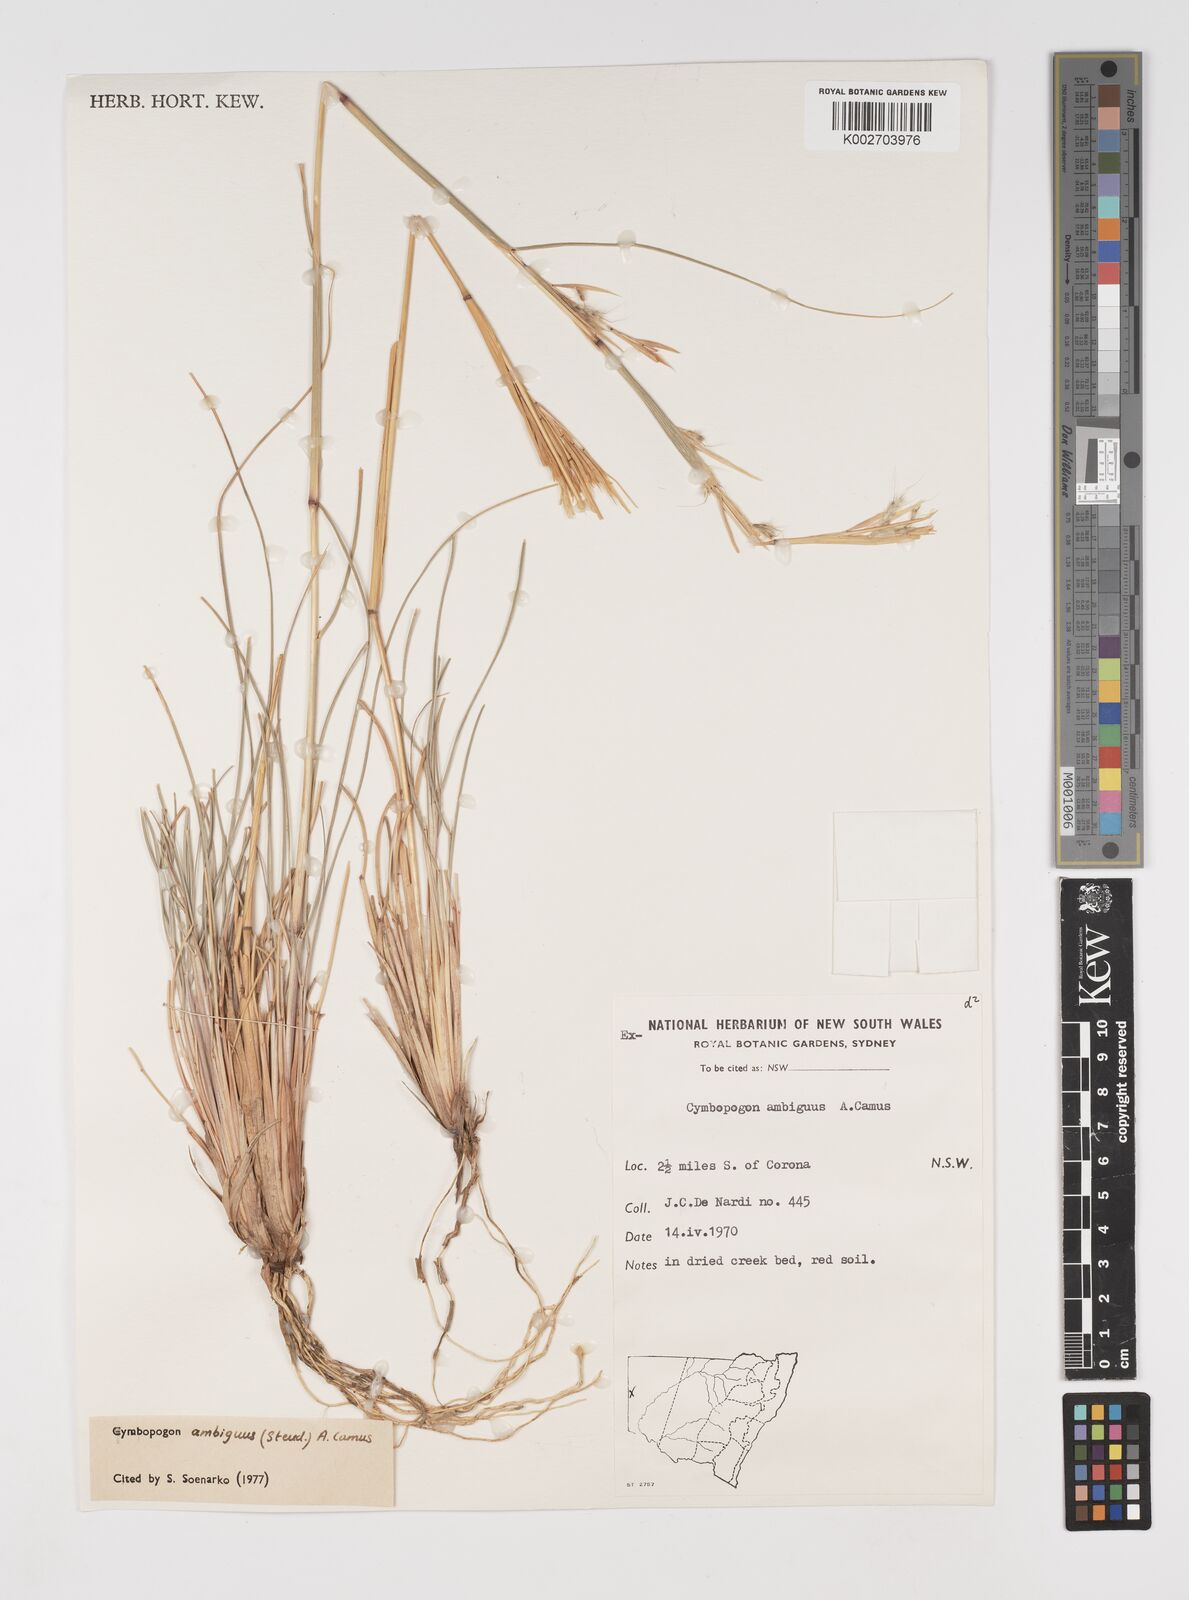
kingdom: Plantae
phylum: Tracheophyta
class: Liliopsida
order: Poales
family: Poaceae
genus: Cymbopogon
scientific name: Cymbopogon ambiguus
